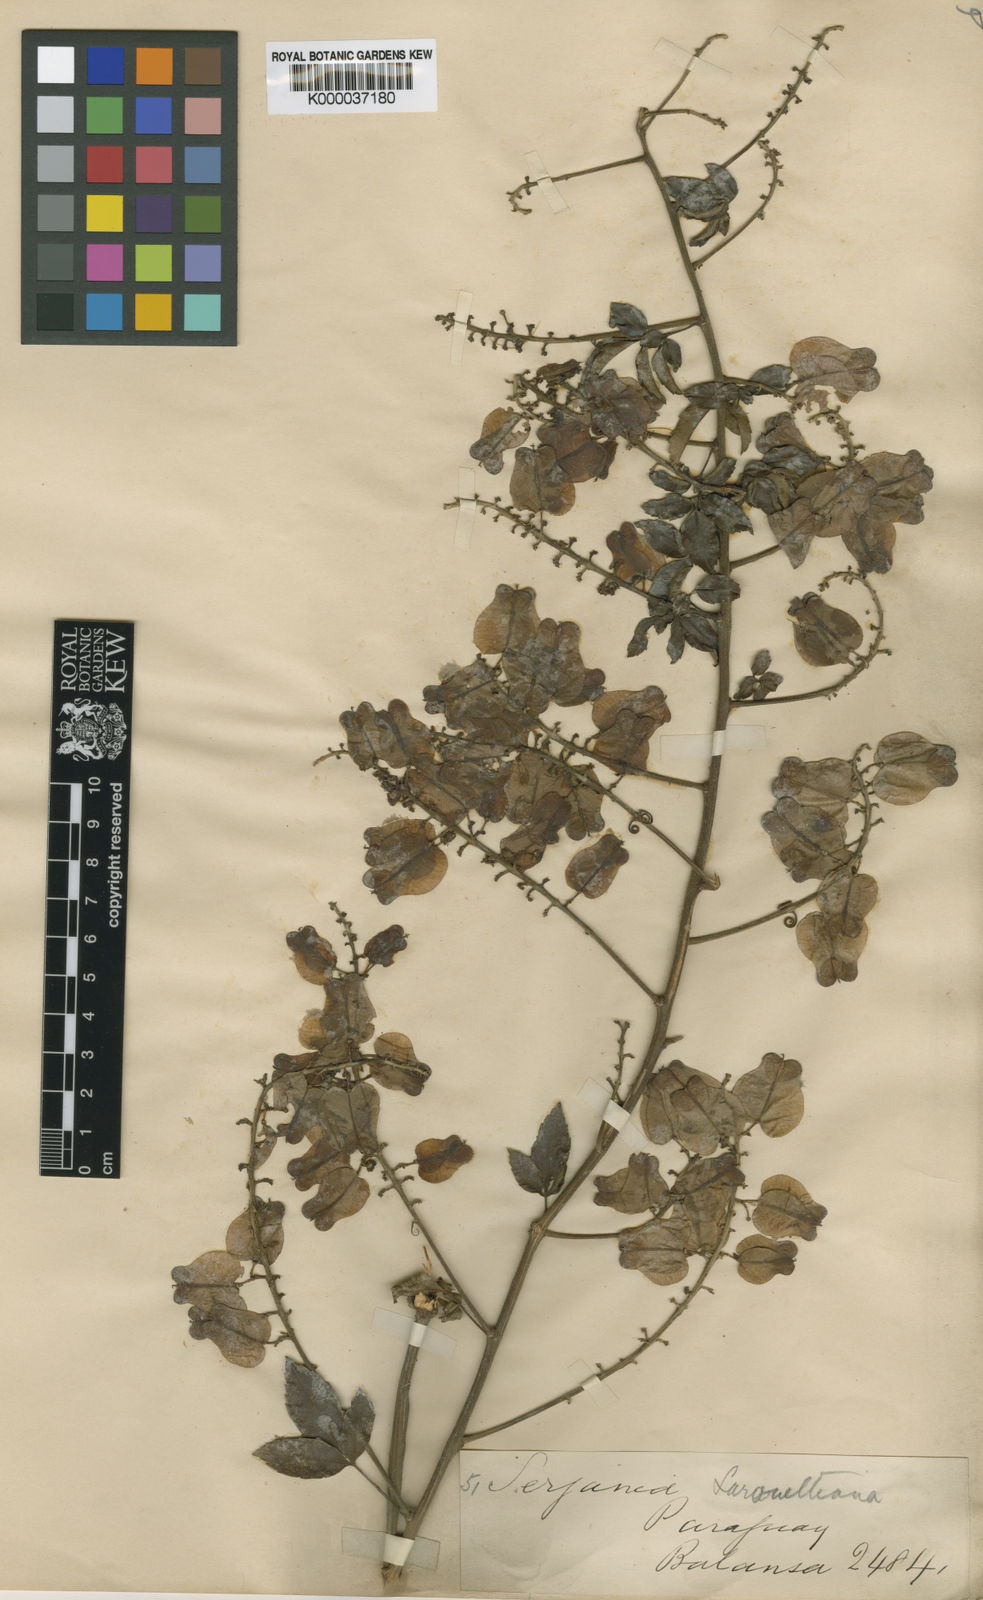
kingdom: Plantae
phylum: Tracheophyta
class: Magnoliopsida
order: Sapindales
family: Sapindaceae
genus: Serjania
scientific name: Serjania laruotteana
